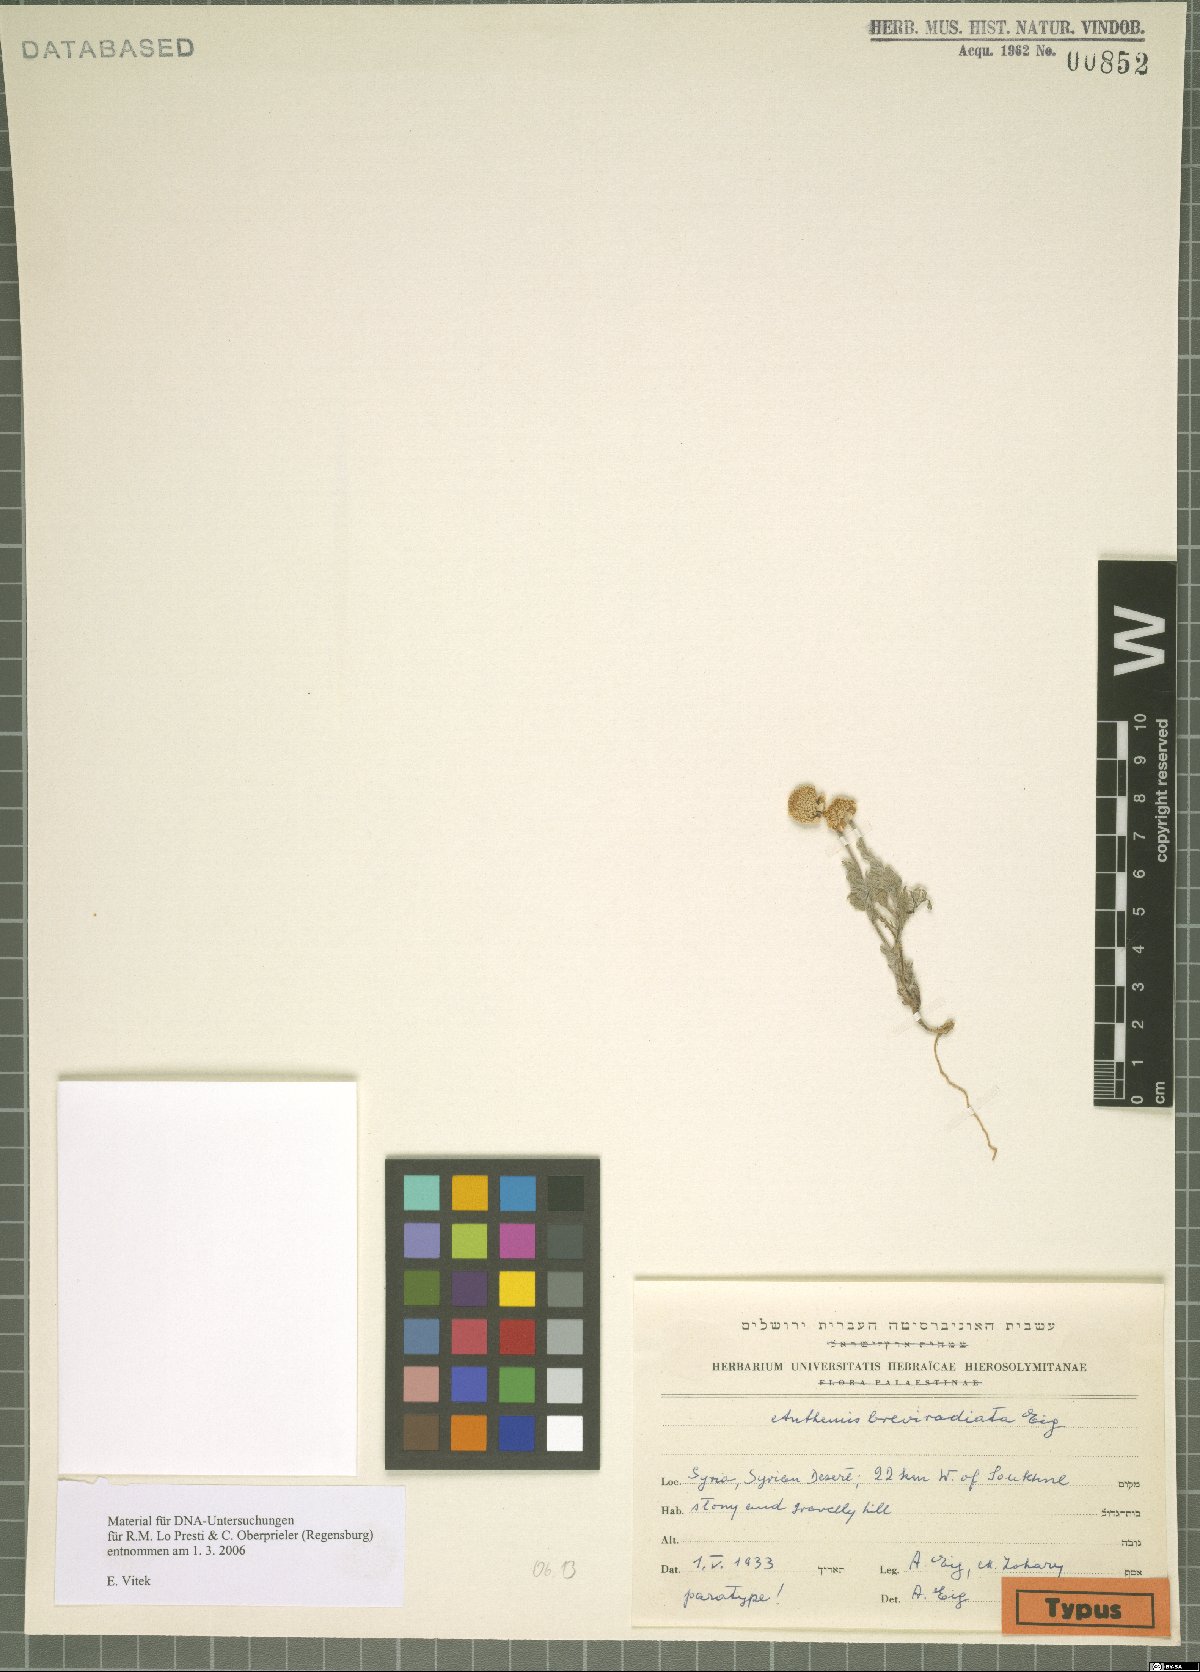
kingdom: Plantae
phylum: Tracheophyta
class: Magnoliopsida
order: Asterales
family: Asteraceae
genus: Anthemis
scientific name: Anthemis breviradiata
